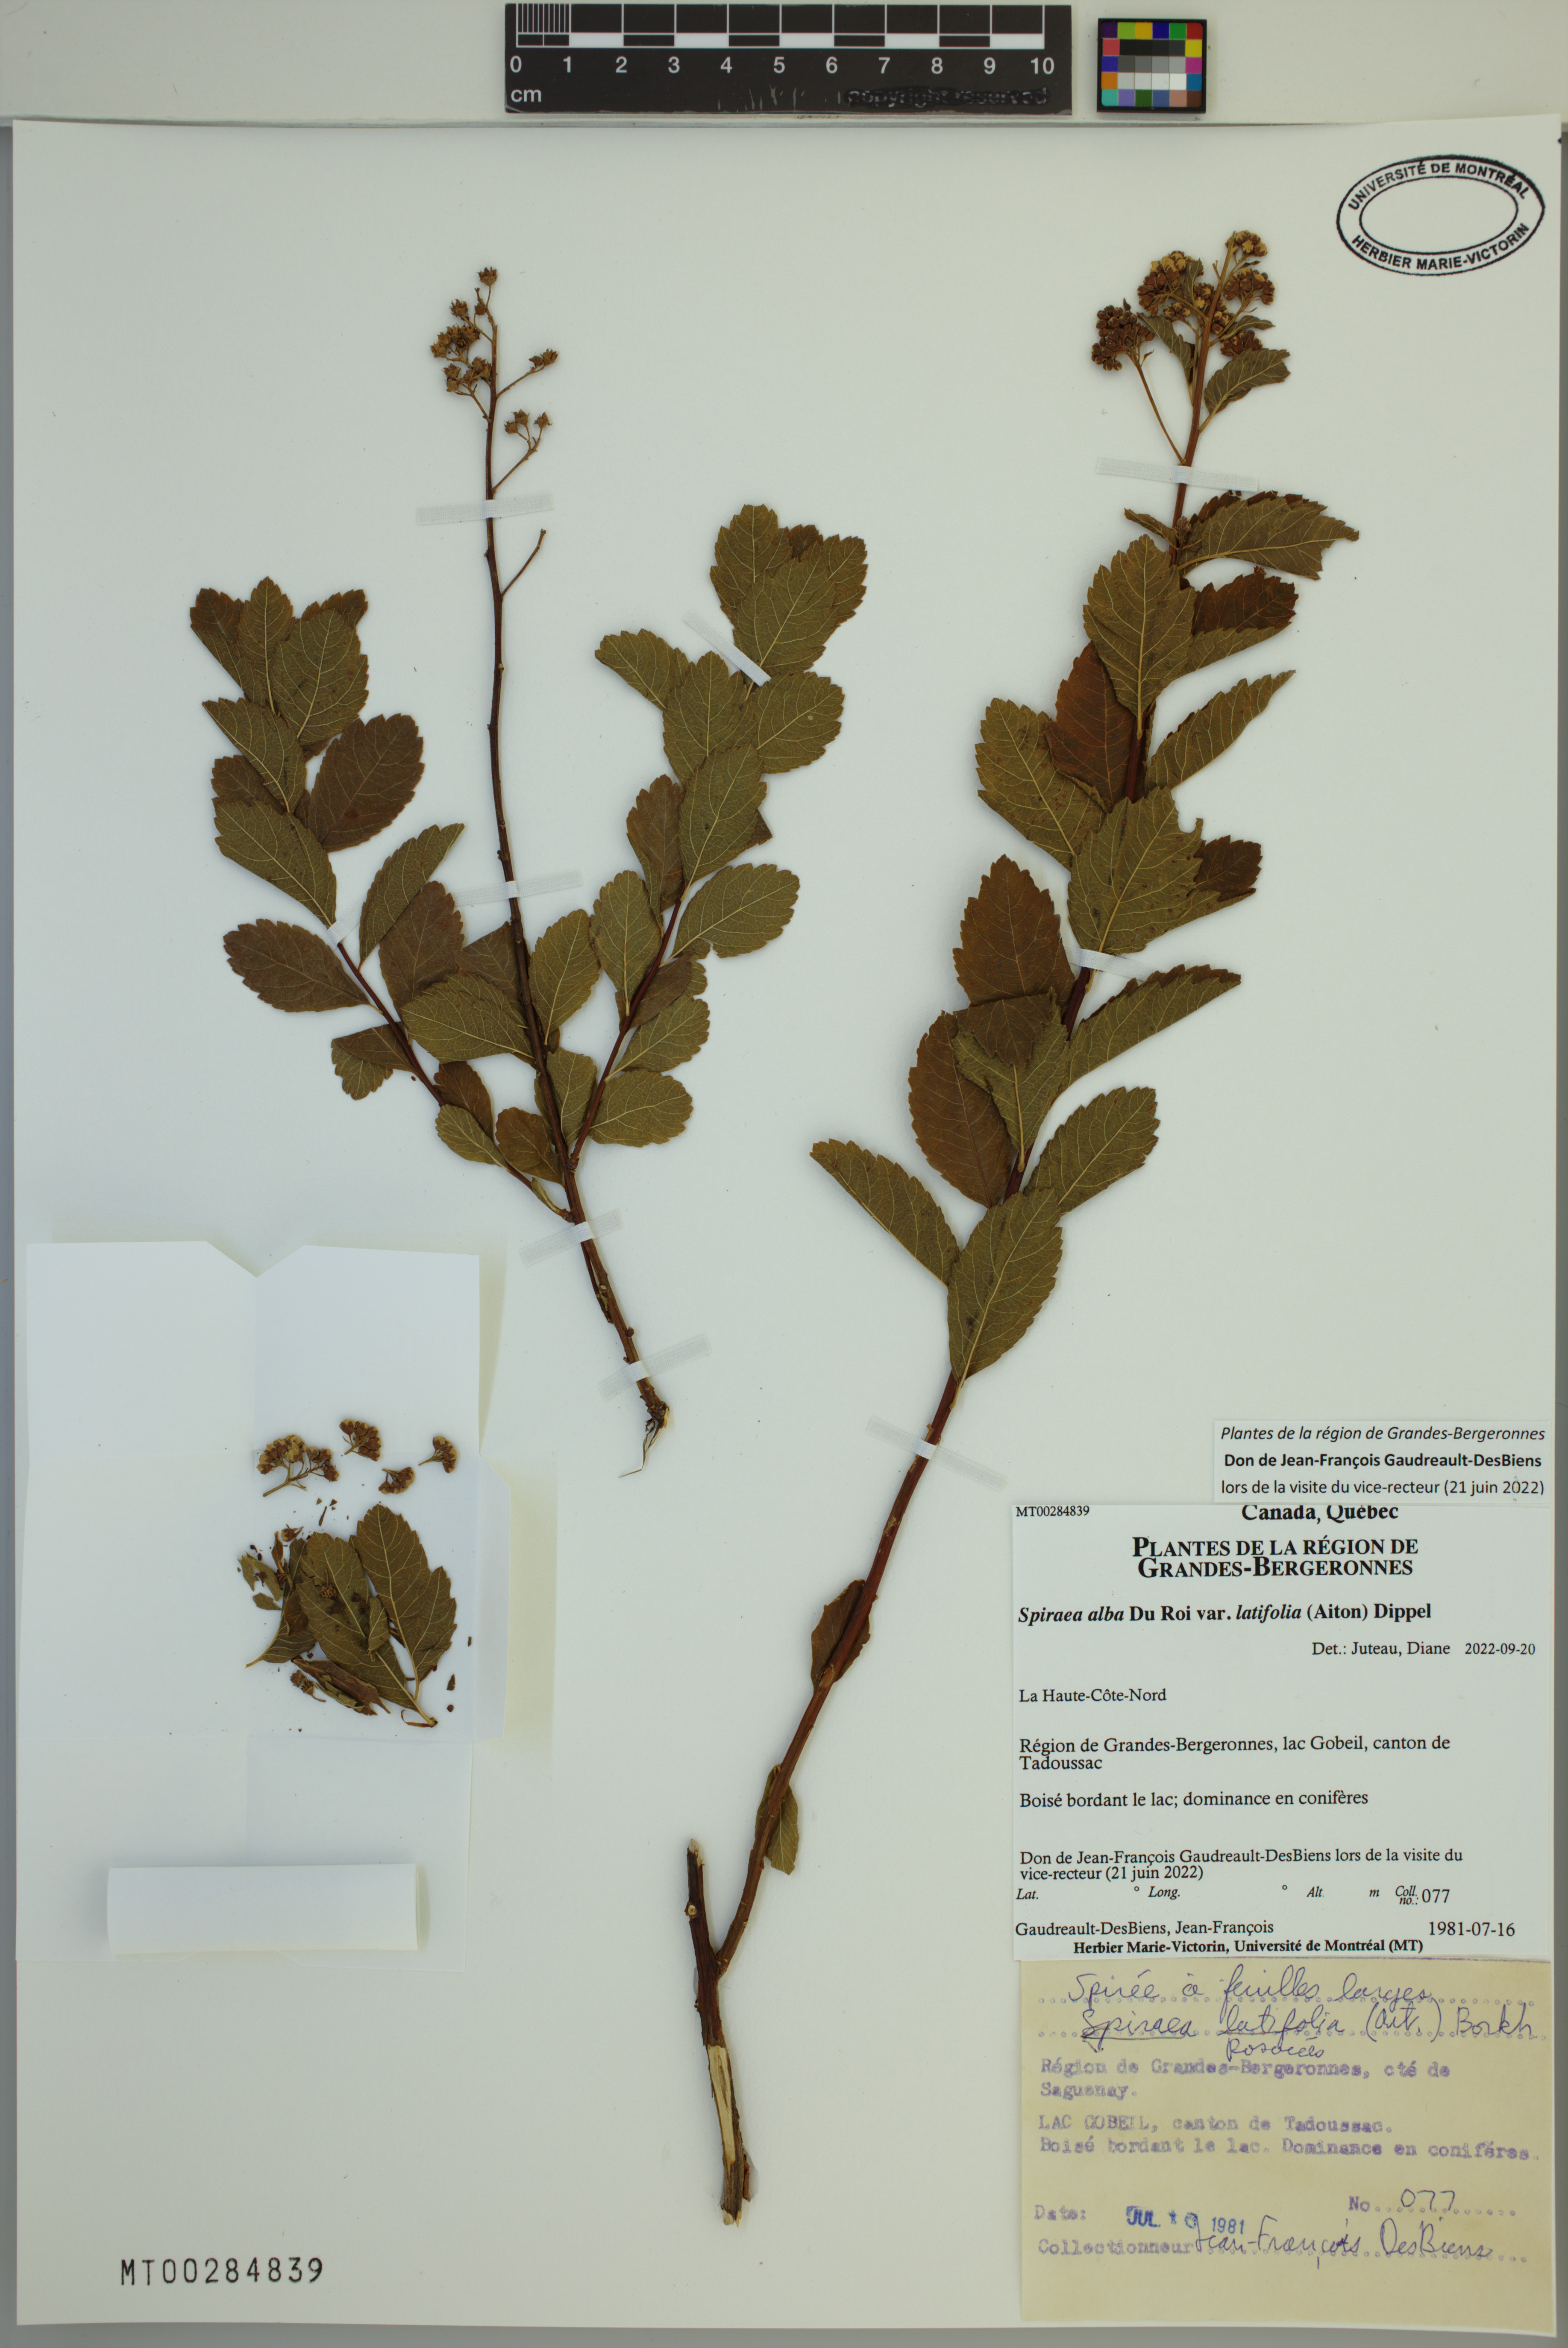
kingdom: Plantae
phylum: Tracheophyta
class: Magnoliopsida
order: Rosales
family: Rosaceae
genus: Spiraea
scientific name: Spiraea alba
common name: Pale bridewort
